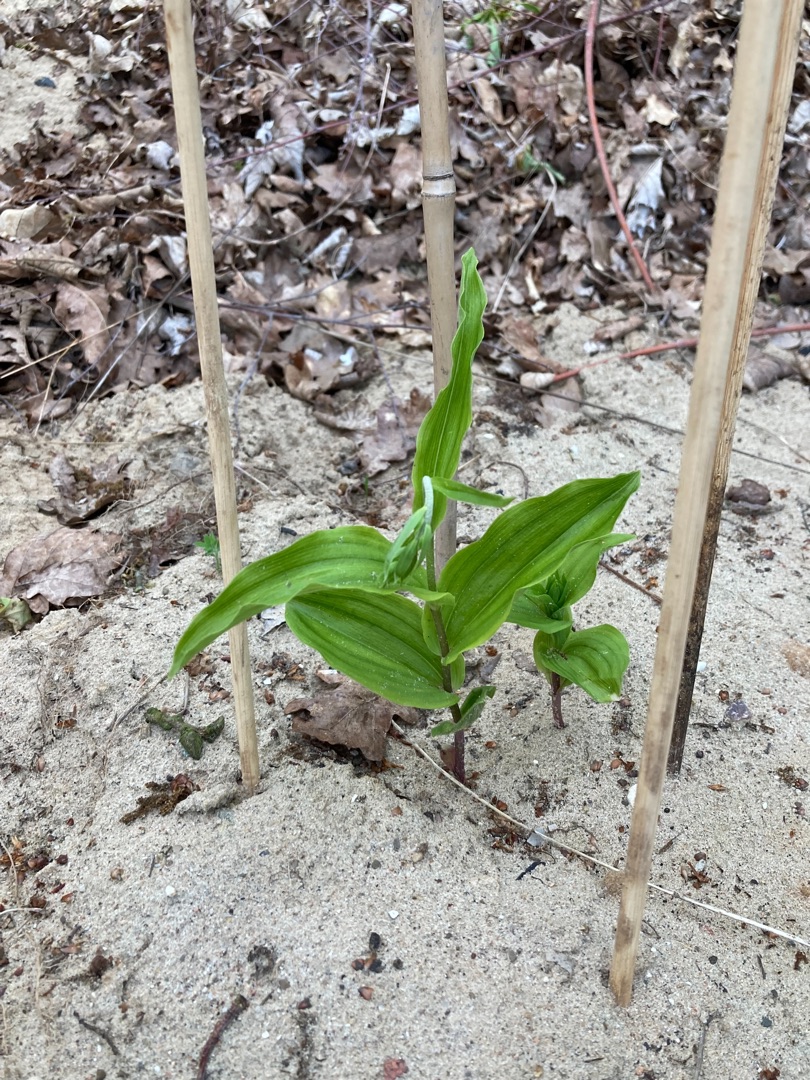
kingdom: Plantae
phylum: Tracheophyta
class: Liliopsida
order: Asparagales
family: Orchidaceae
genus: Epipactis
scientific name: Epipactis helleborine
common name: Skov-hullæbe
